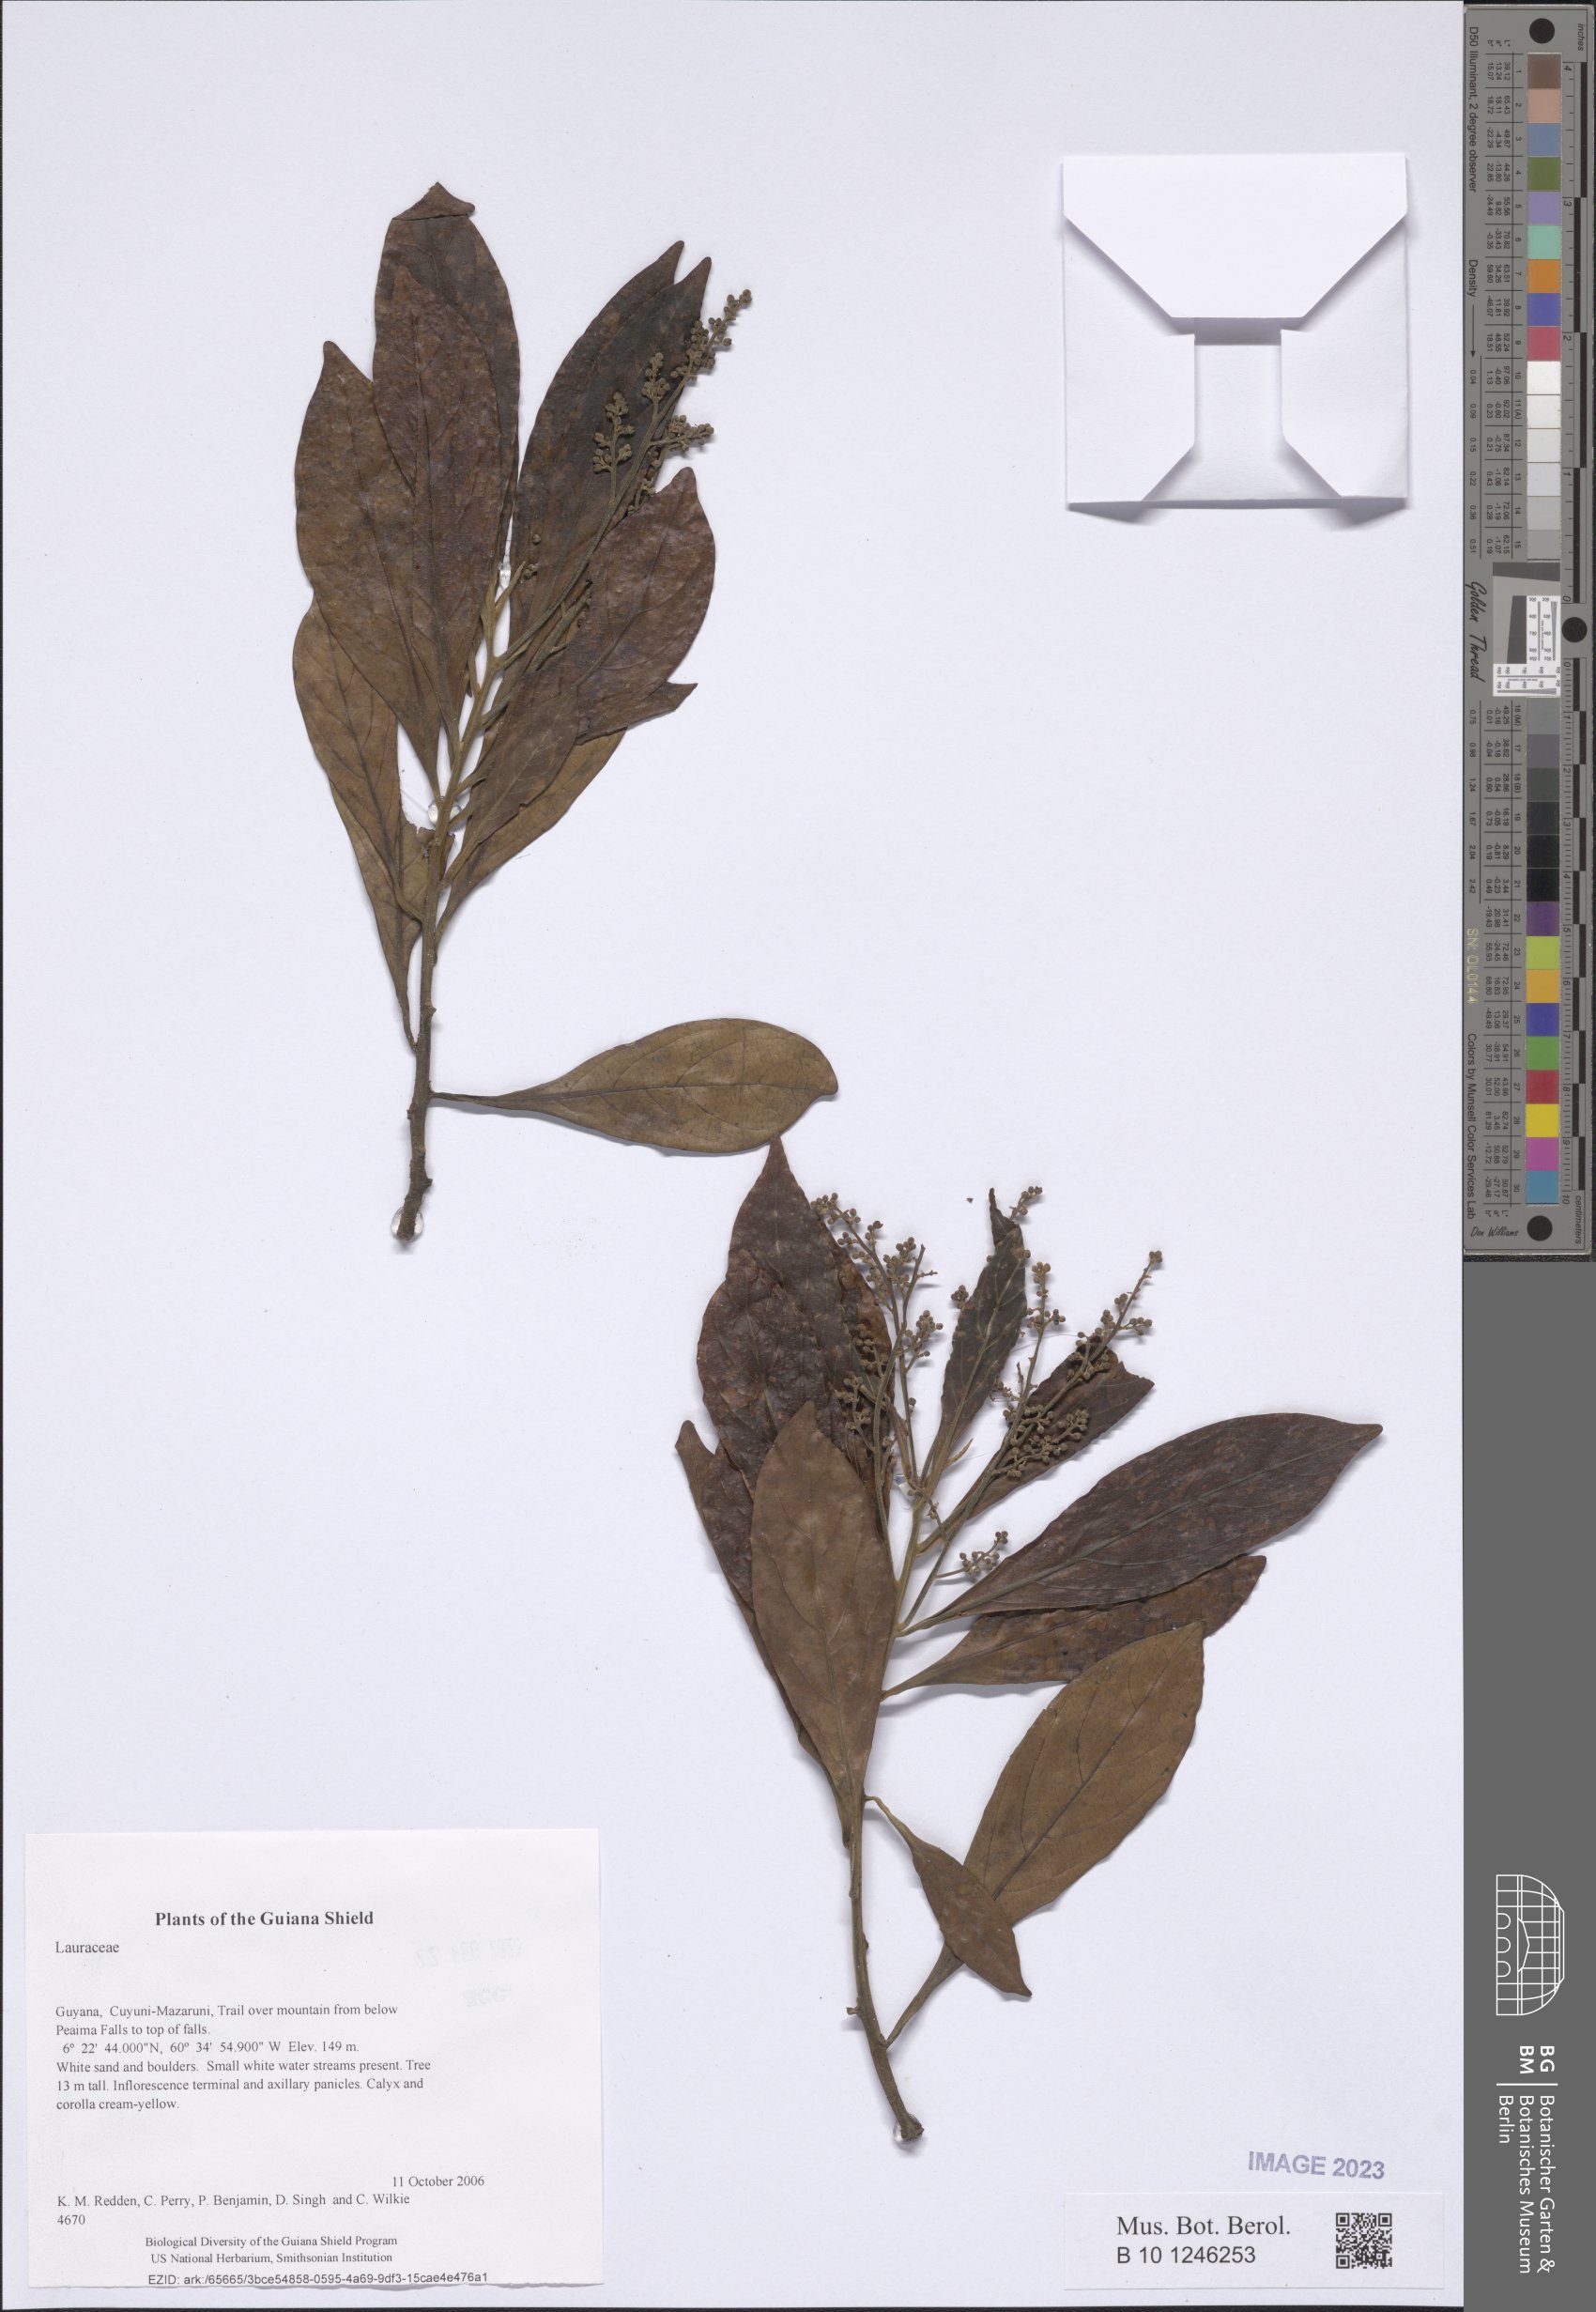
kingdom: Plantae
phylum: Tracheophyta
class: Magnoliopsida
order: Laurales
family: Lauraceae
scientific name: Lauraceae
